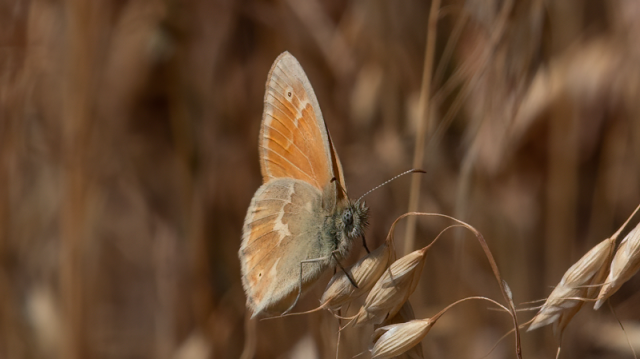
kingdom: Animalia
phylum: Arthropoda
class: Insecta
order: Lepidoptera
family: Nymphalidae
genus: Coenonympha
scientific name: Coenonympha tullia
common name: Large Heath
